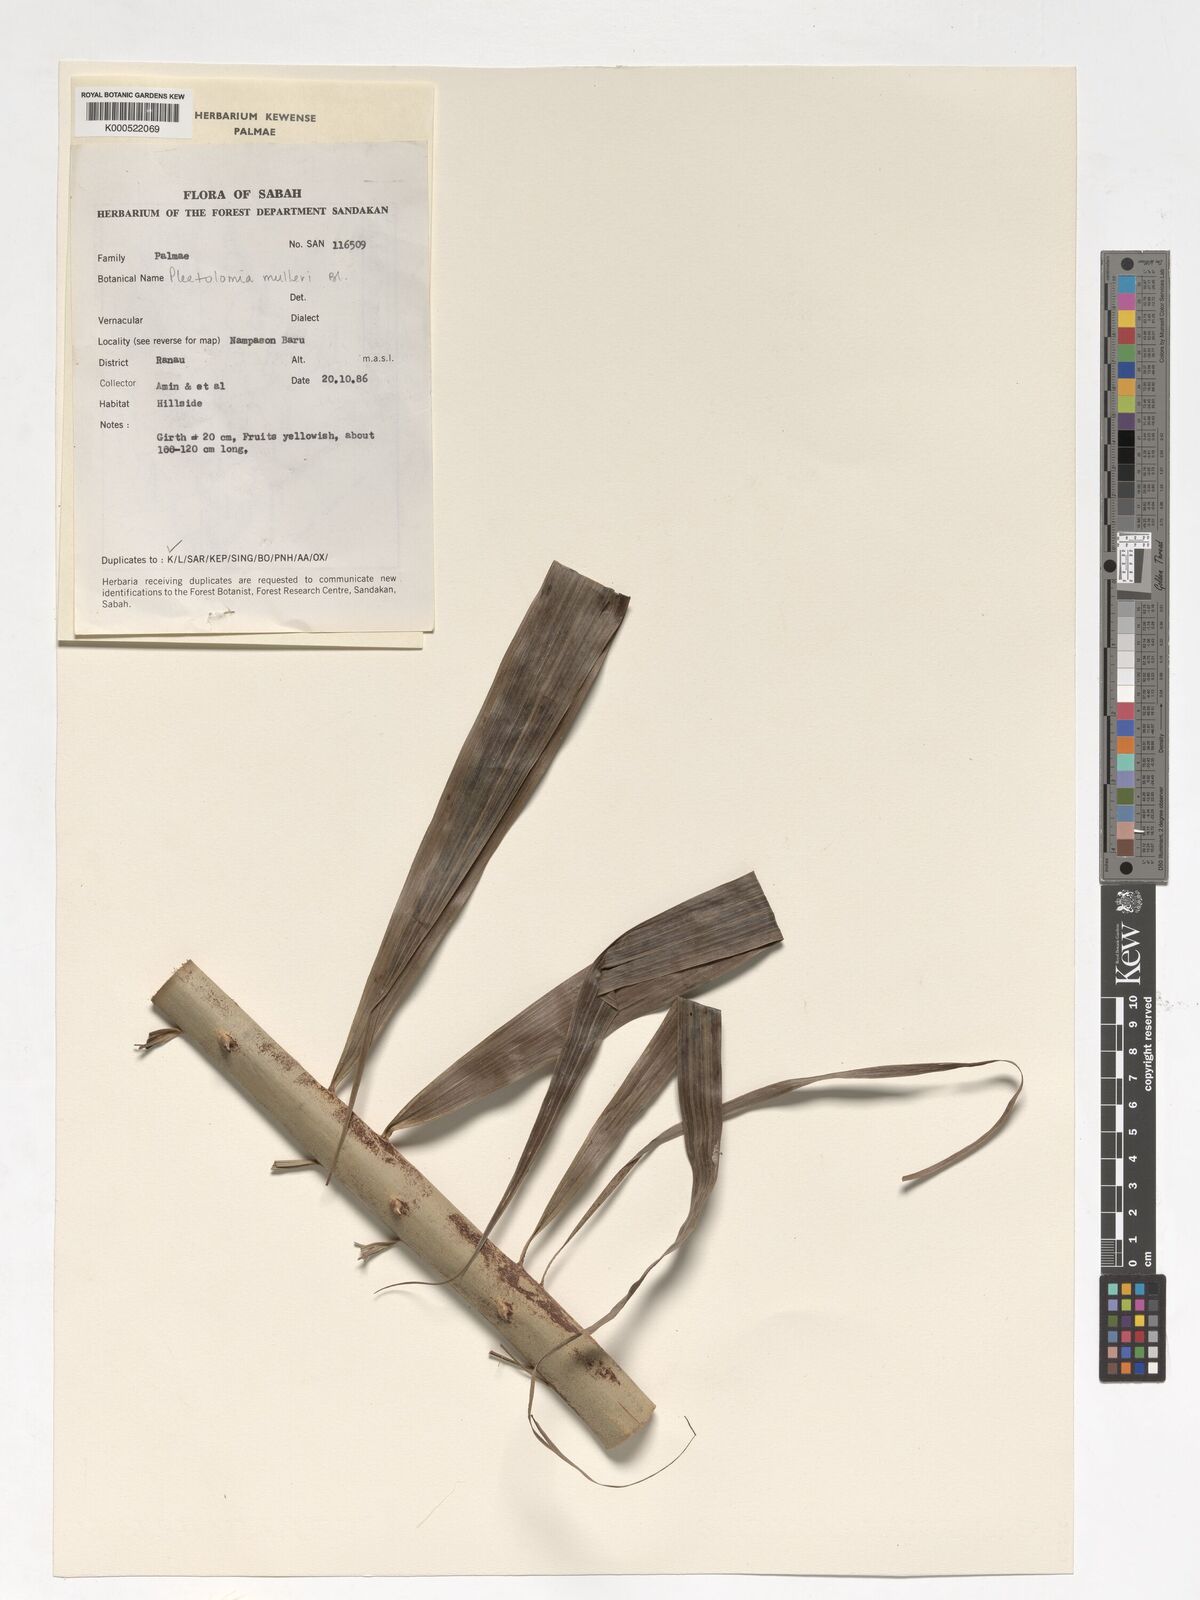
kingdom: Plantae
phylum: Tracheophyta
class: Liliopsida
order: Arecales
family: Arecaceae
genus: Plectocomia
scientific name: Plectocomia mulleri
